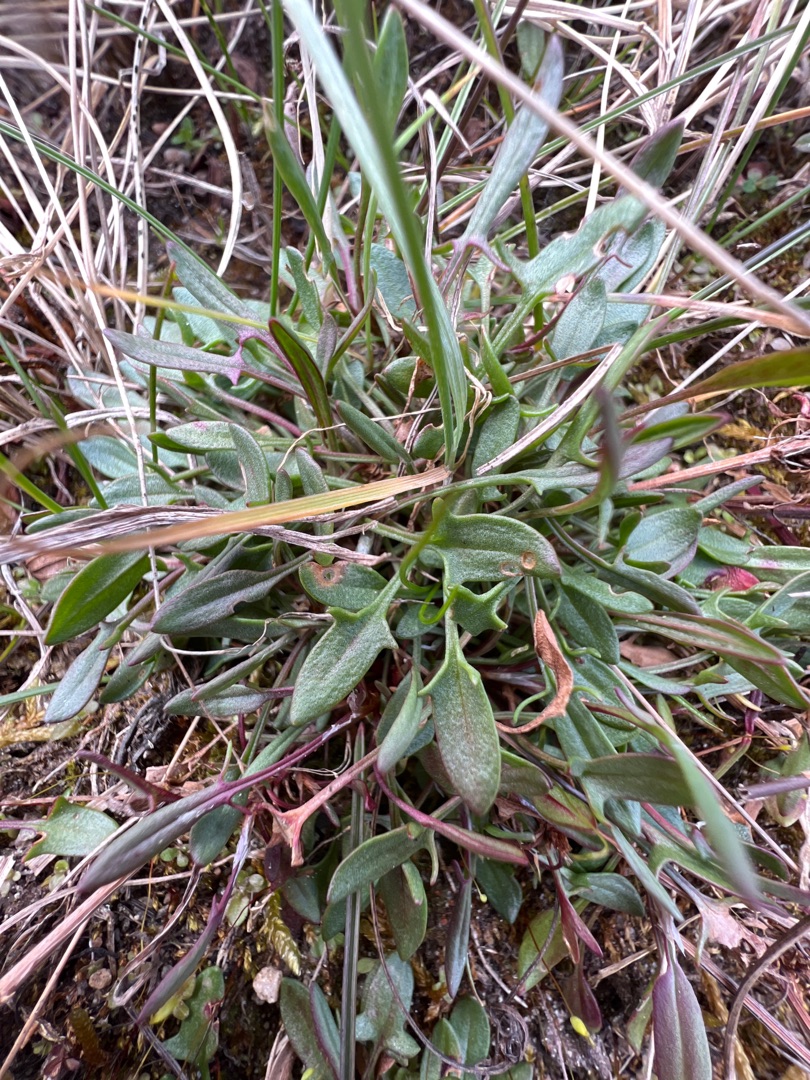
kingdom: Plantae
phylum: Tracheophyta
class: Magnoliopsida
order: Caryophyllales
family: Polygonaceae
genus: Rumex
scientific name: Rumex acetosella
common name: Rødknæ
